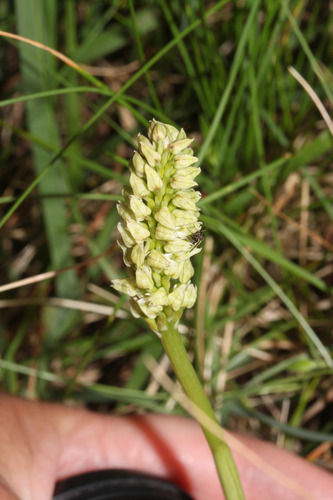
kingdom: Plantae
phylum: Tracheophyta
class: Liliopsida
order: Asparagales
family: Orchidaceae
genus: Neotinea
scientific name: Neotinea maculata
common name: Dense-flowered orchid
